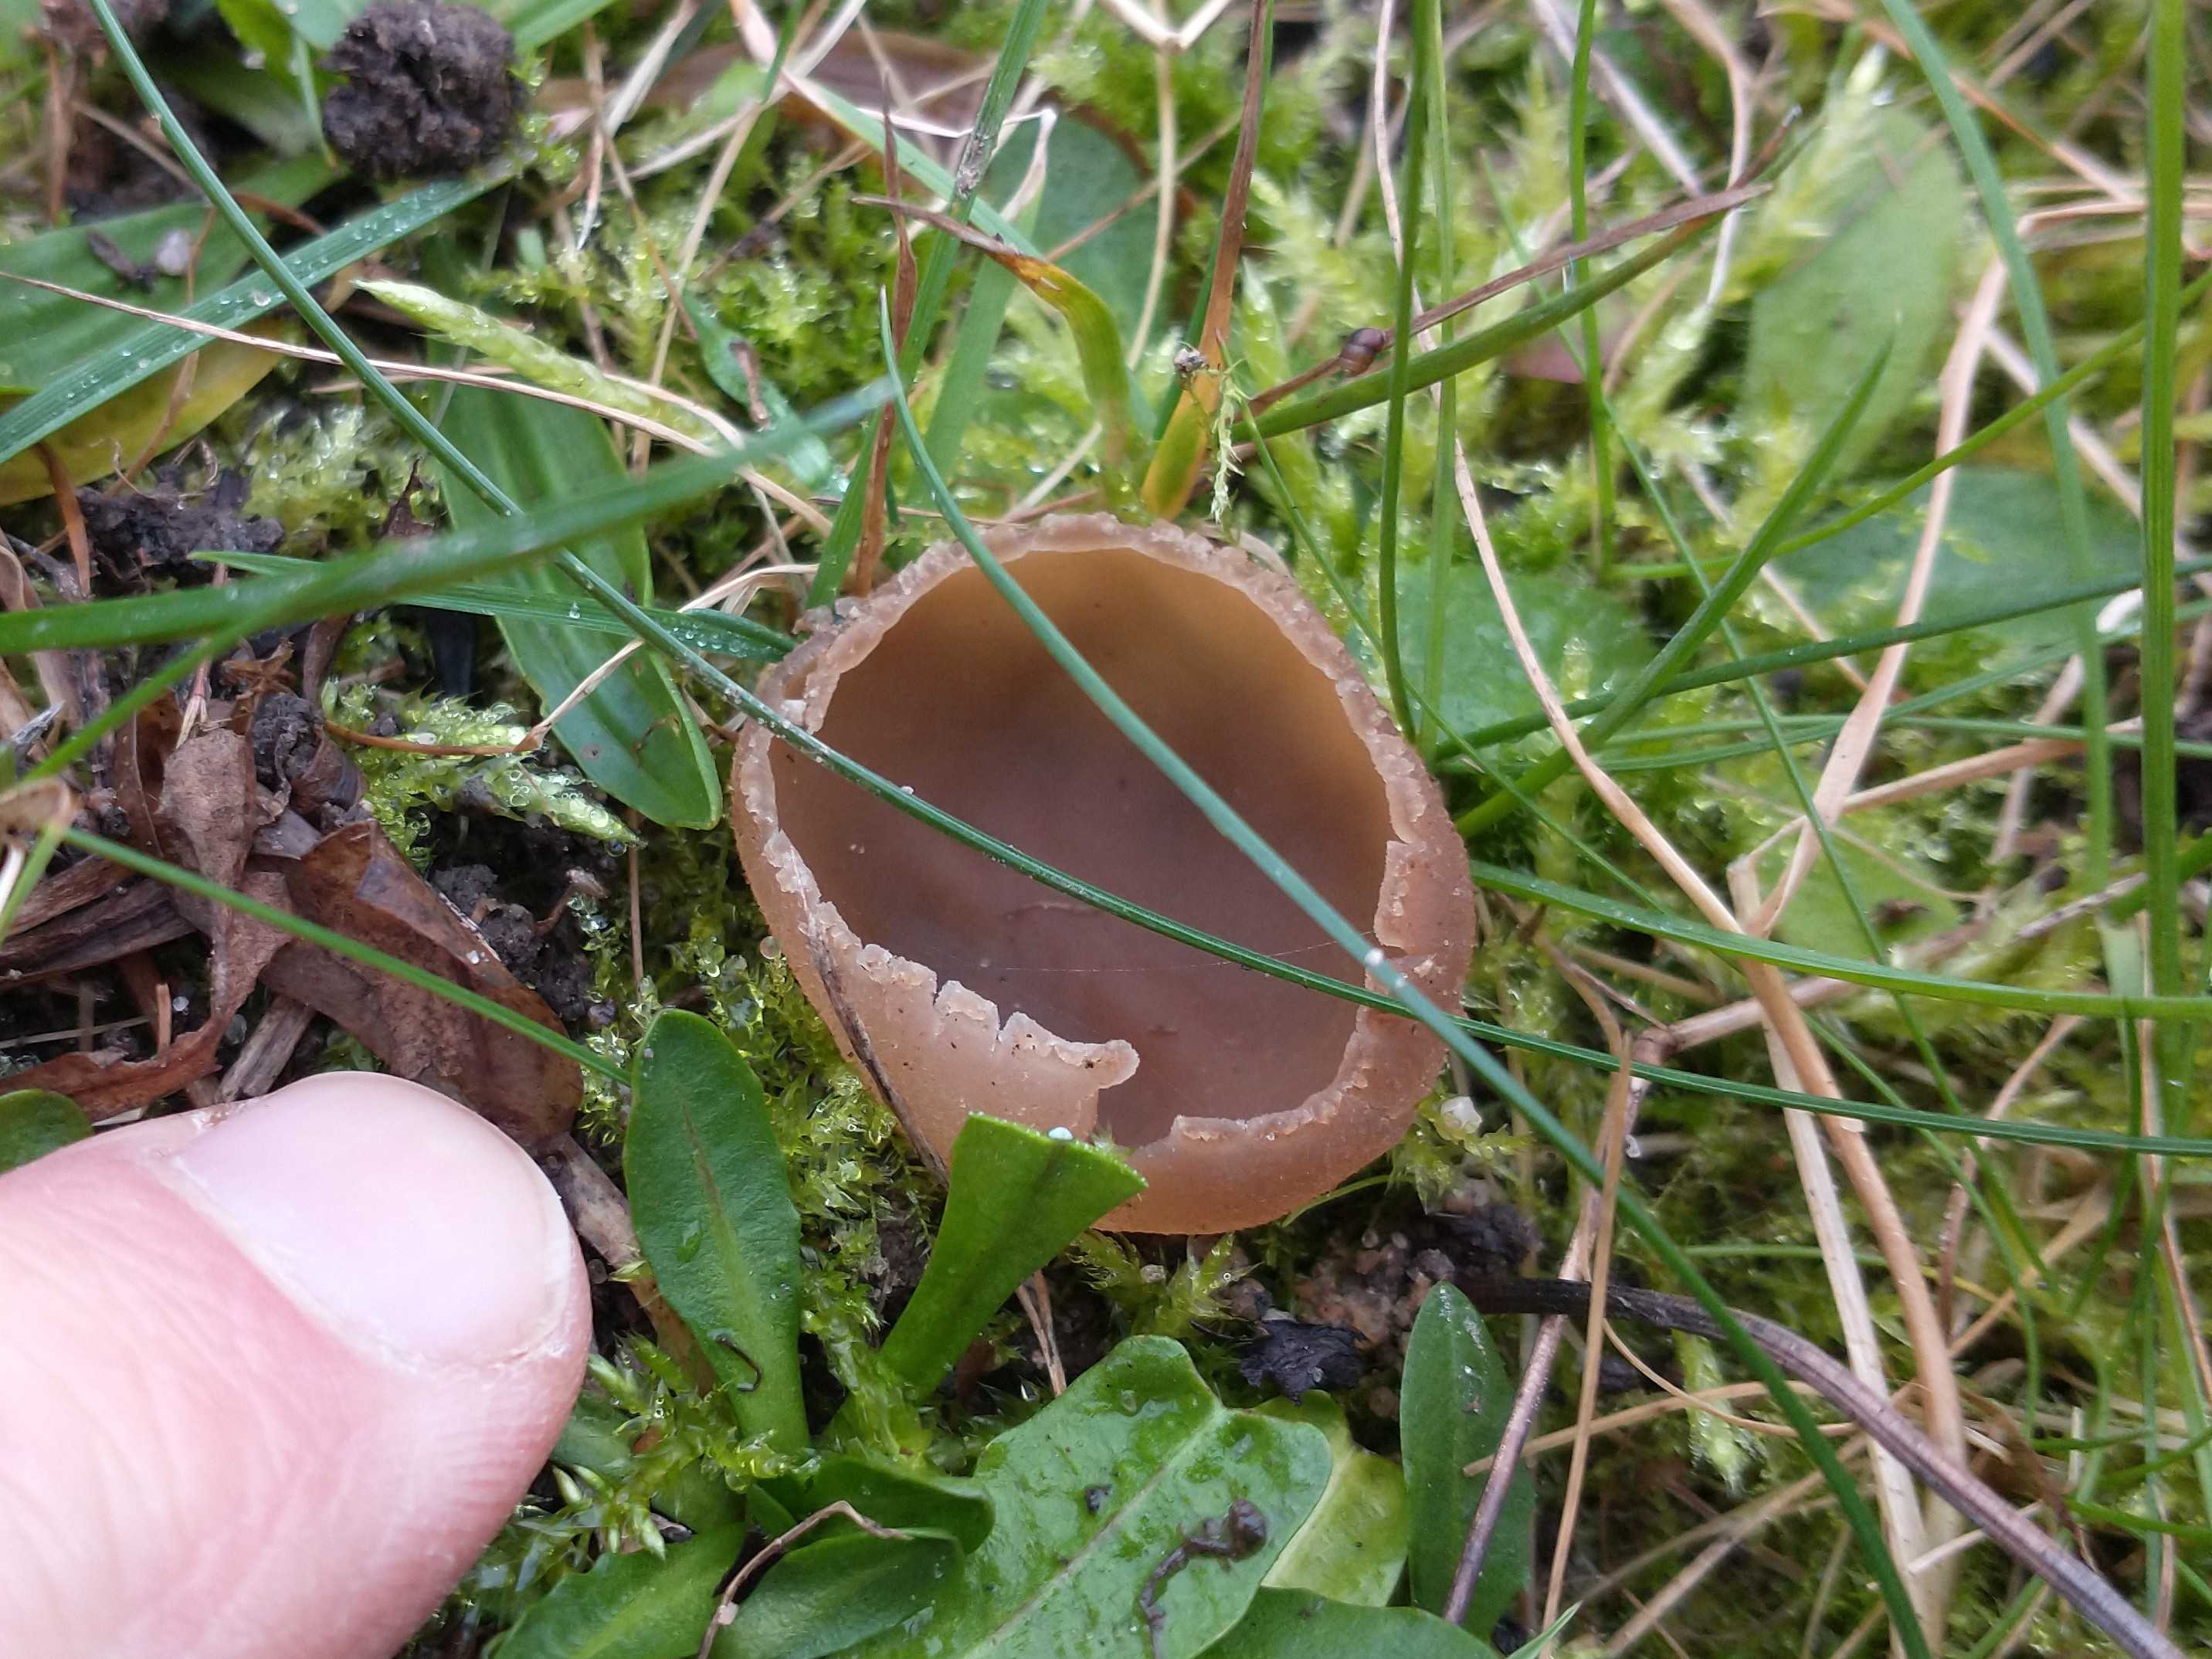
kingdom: Fungi
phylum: Ascomycota
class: Pezizomycetes
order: Pezizales
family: Pezizaceae
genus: Peziza
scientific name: Peziza fimeti
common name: møg-bægersvamp
